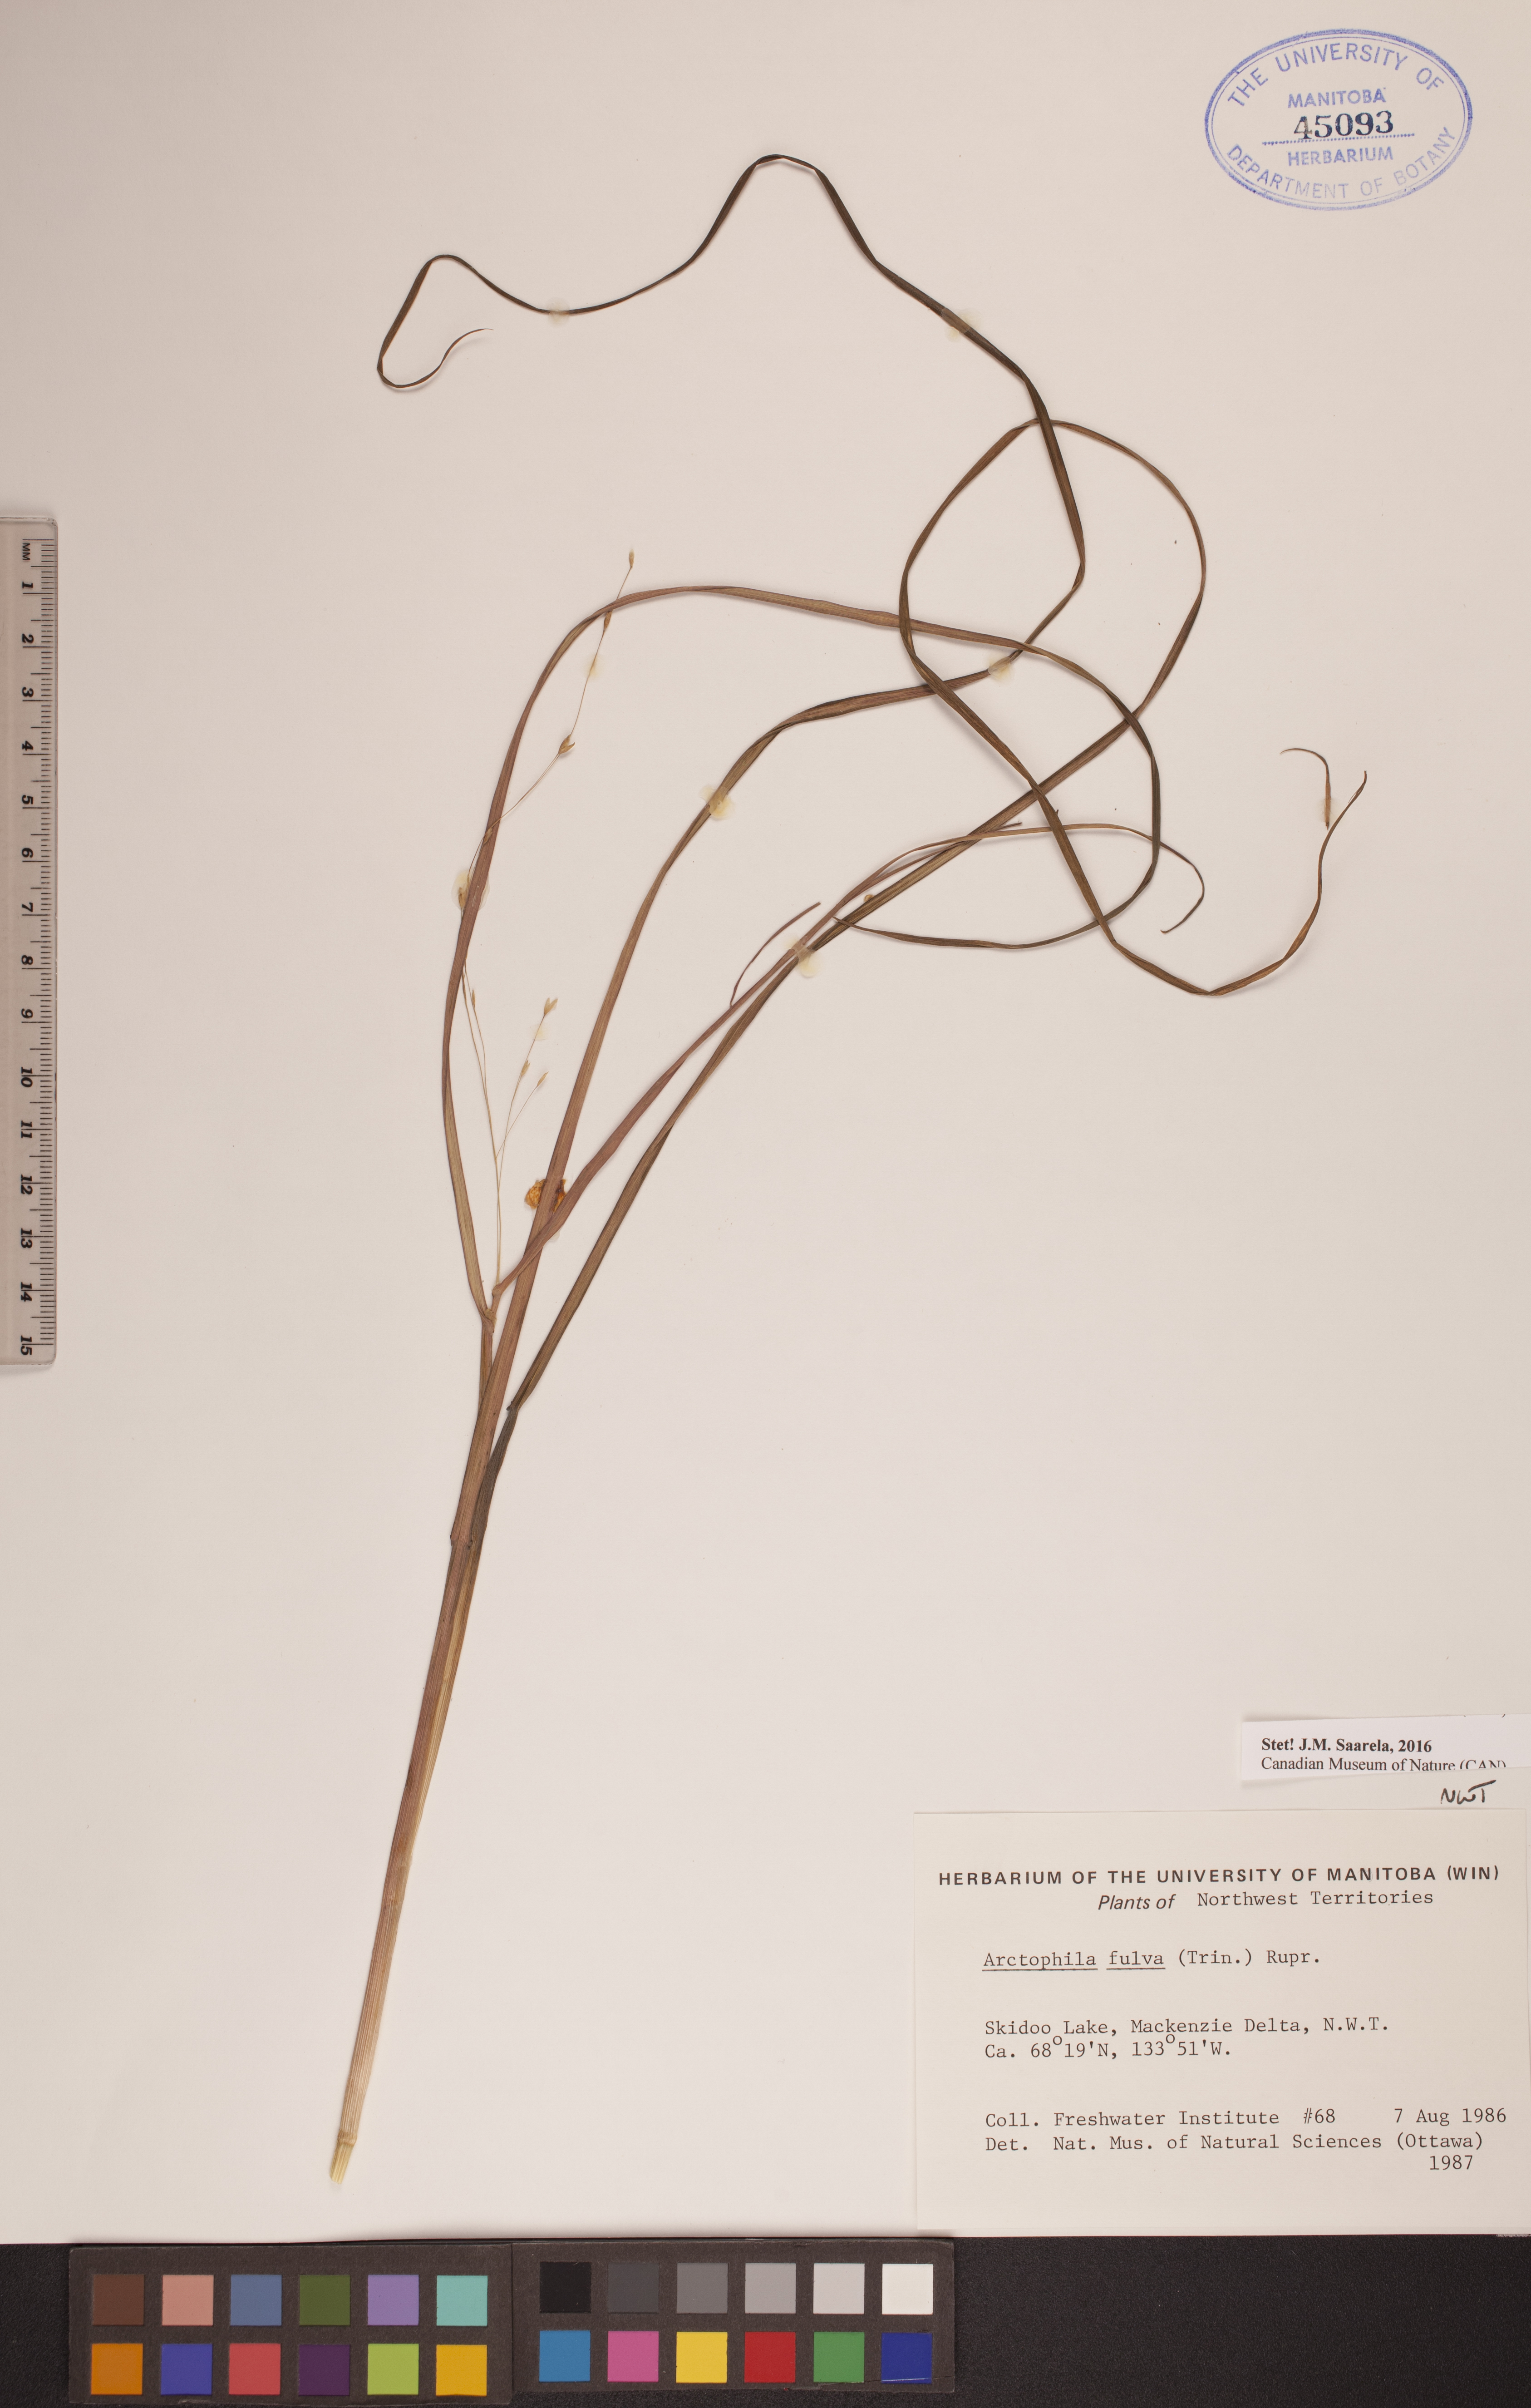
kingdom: Plantae
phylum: Tracheophyta
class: Liliopsida
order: Poales
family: Poaceae
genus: Dupontia
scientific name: Dupontia fulva
